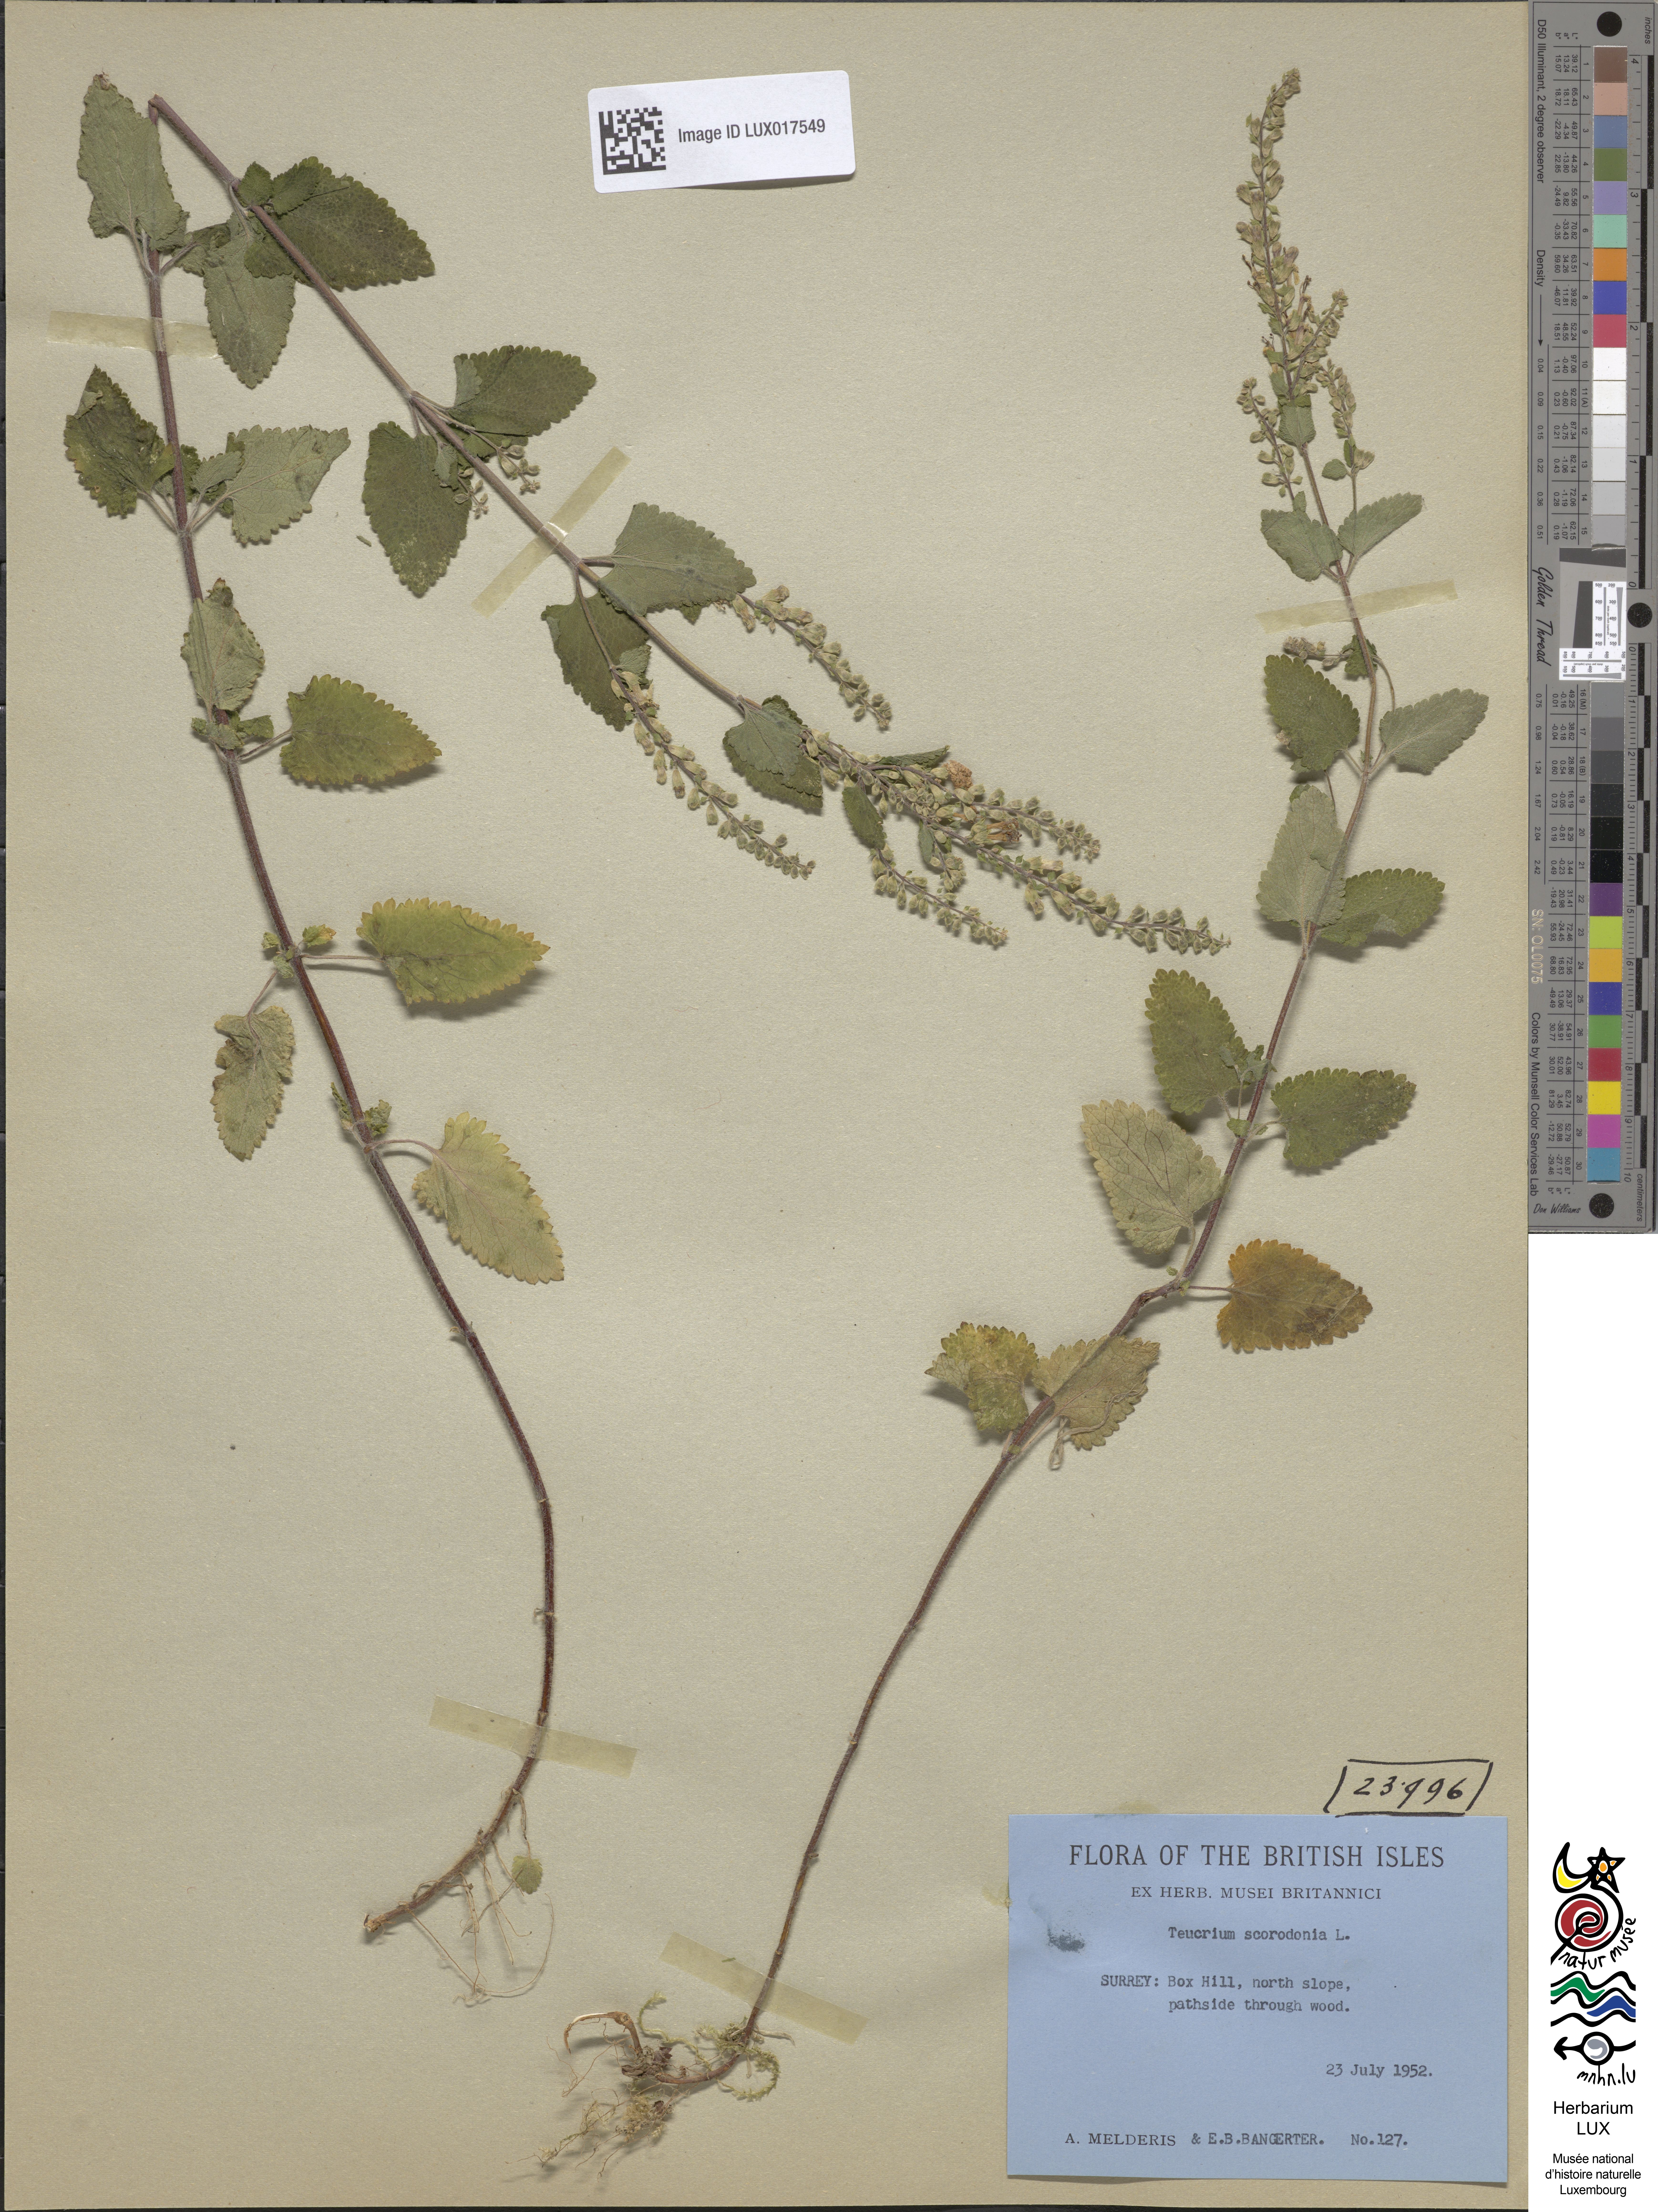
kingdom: Plantae
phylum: Tracheophyta
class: Magnoliopsida
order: Lamiales
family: Lamiaceae
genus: Teucrium
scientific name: Teucrium scorodonia
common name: Woodland germander
